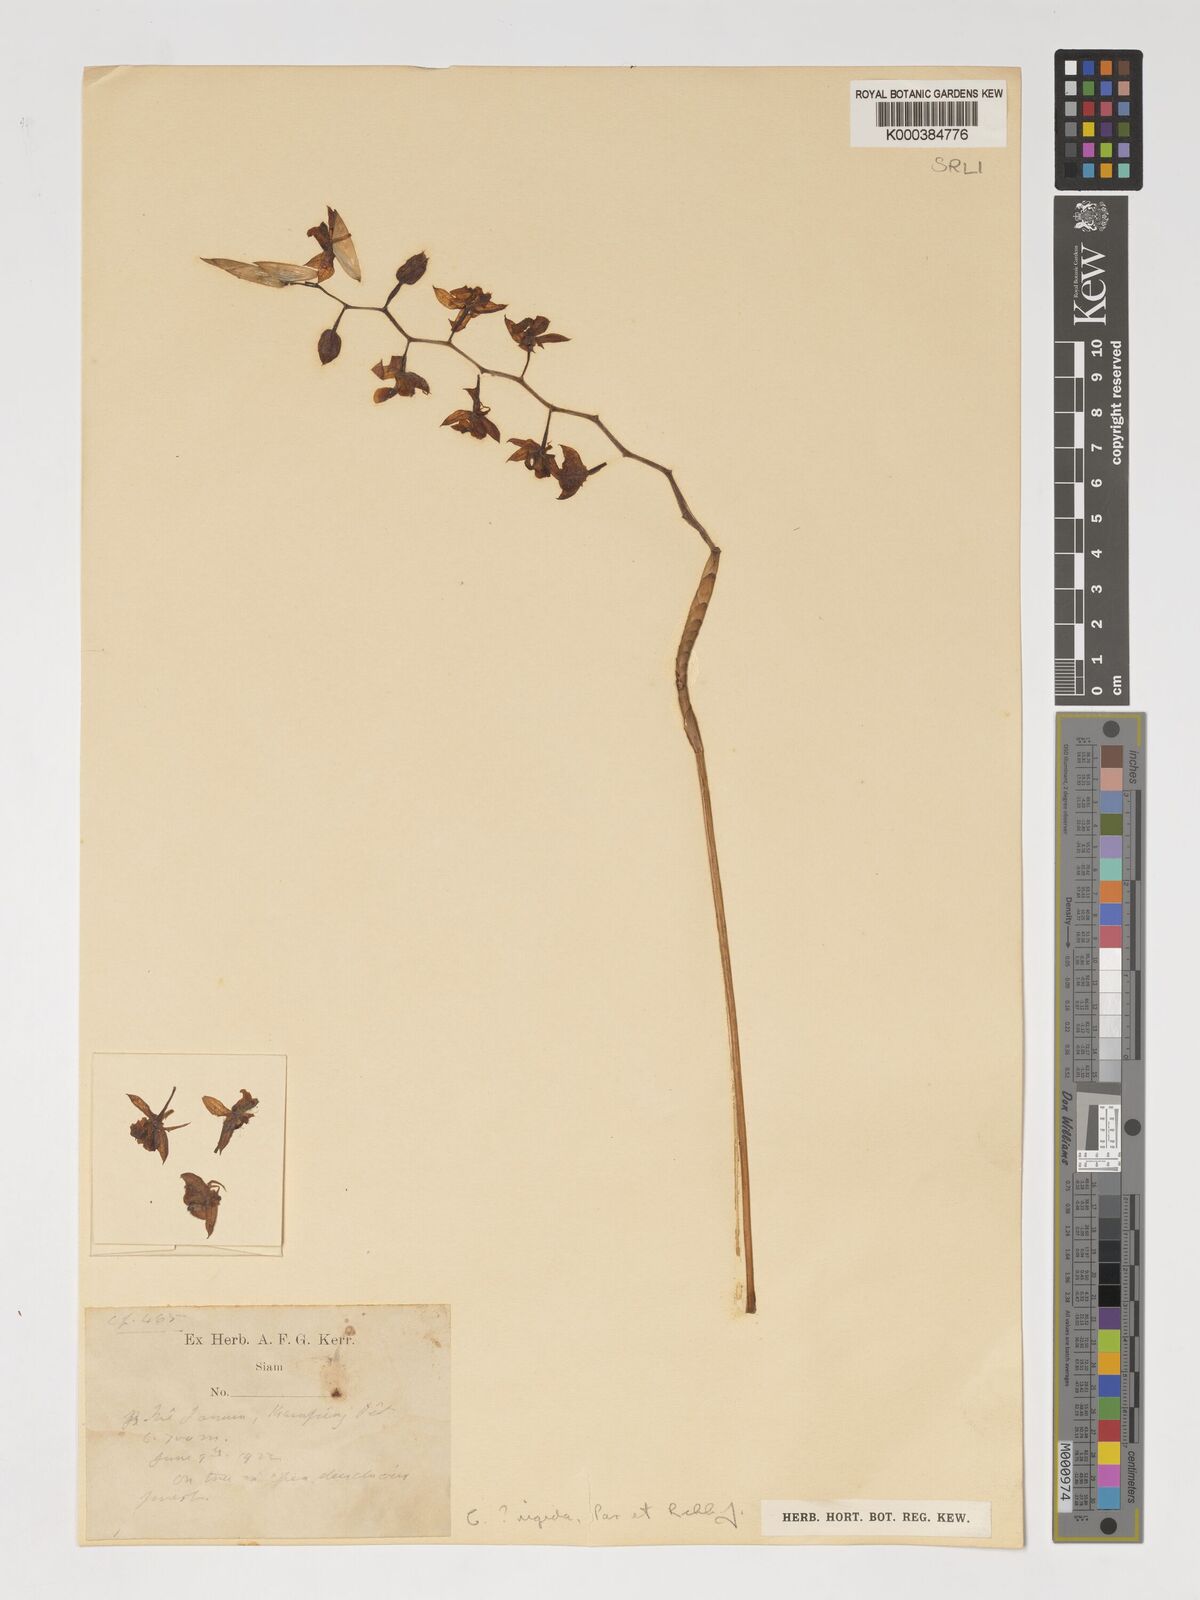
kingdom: Plantae
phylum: Tracheophyta
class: Liliopsida
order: Asparagales
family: Orchidaceae
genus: Coelogyne
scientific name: Coelogyne rigida
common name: Rigid coelogyne
